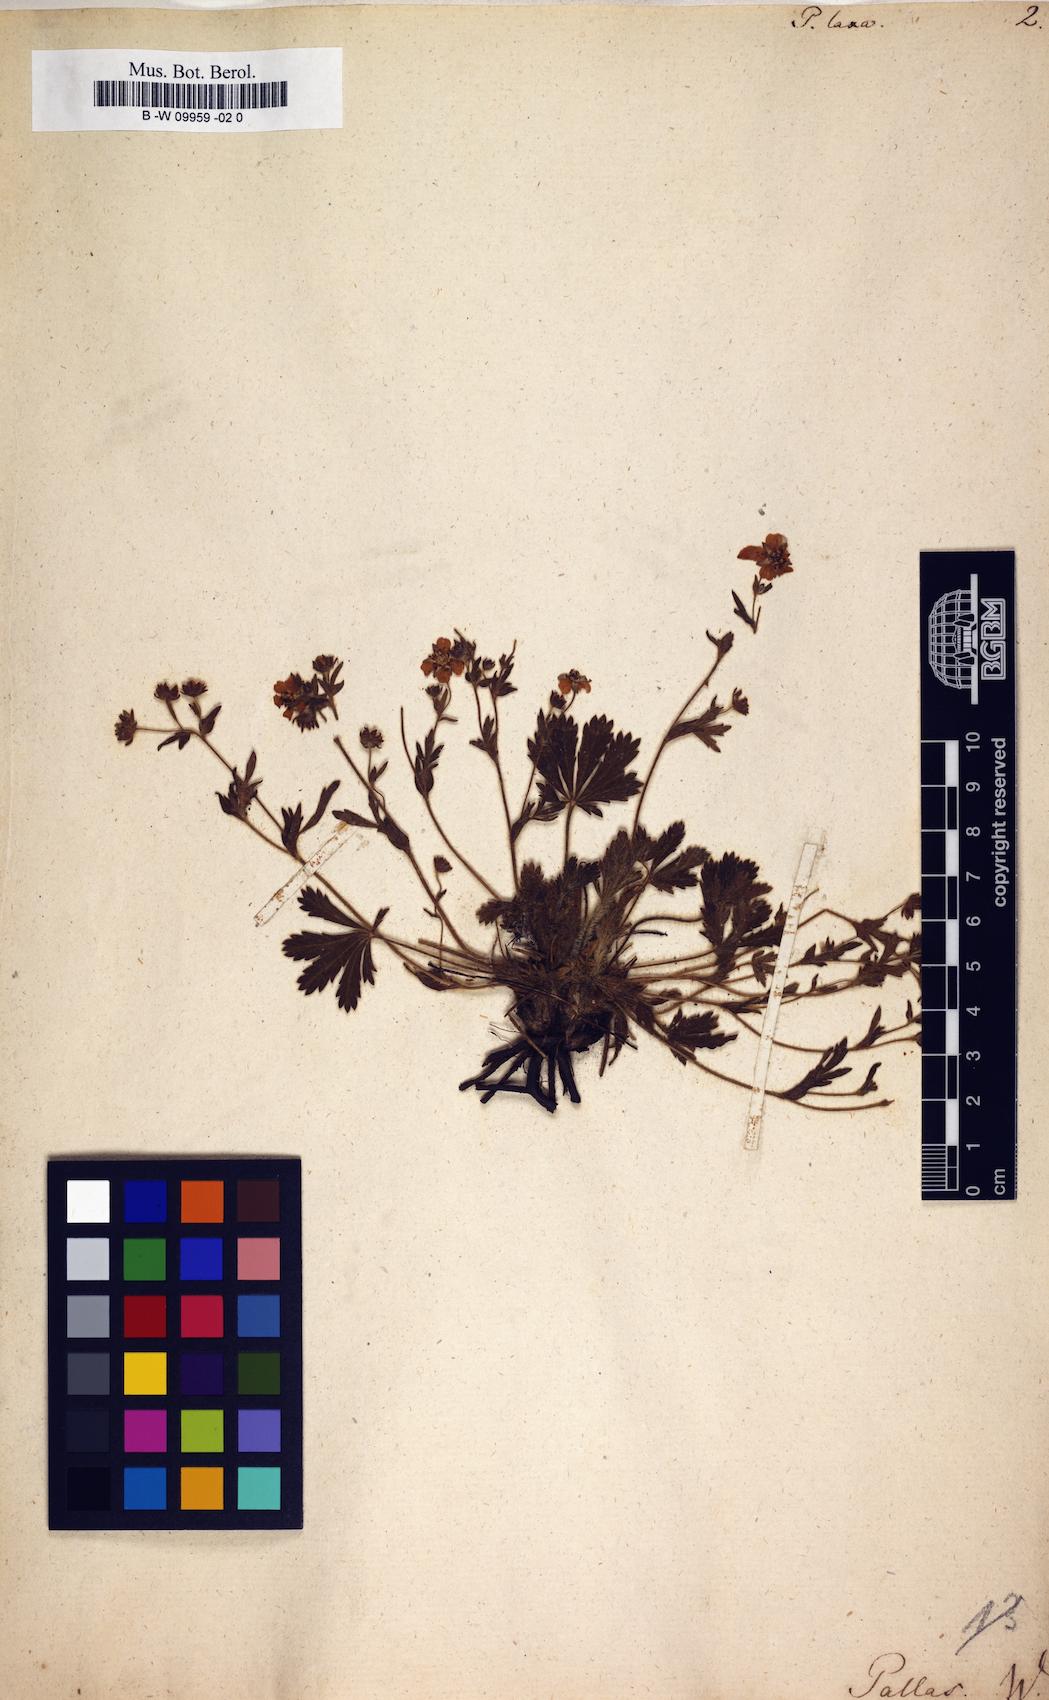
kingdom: Plantae
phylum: Tracheophyta
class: Magnoliopsida
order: Rosales
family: Rosaceae
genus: Potentilla
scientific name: Potentilla humifusa
